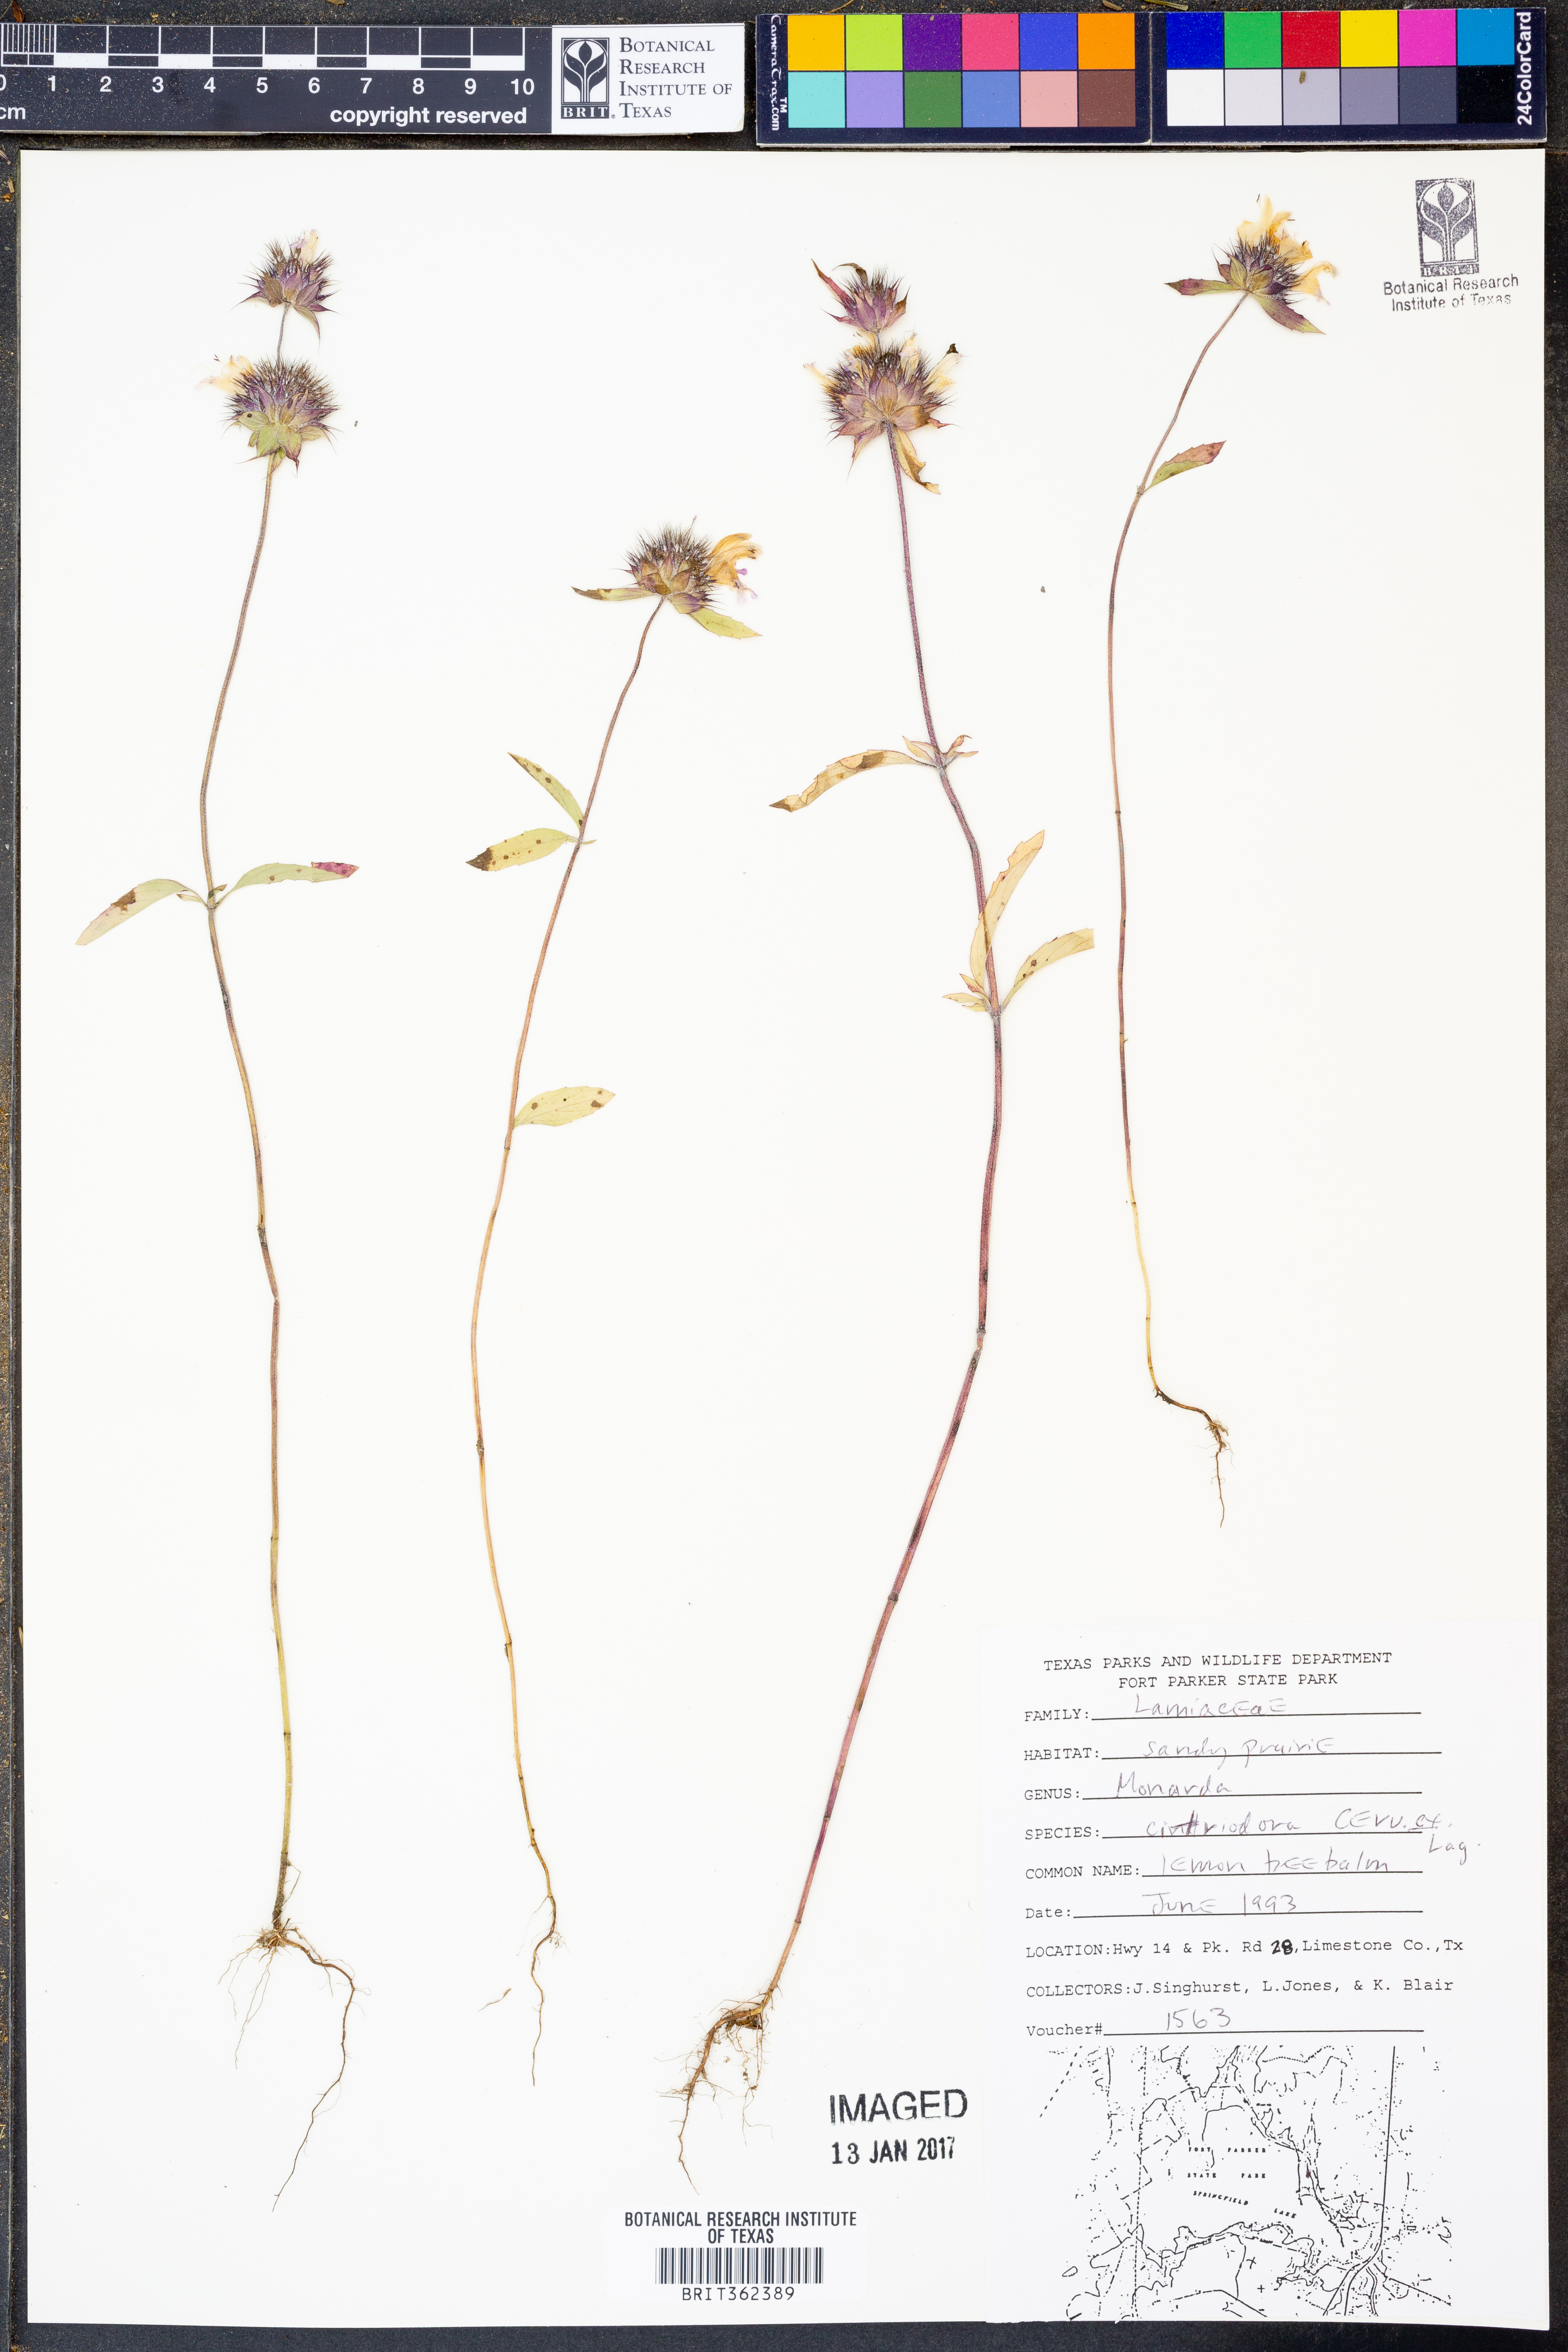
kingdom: Plantae
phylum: Tracheophyta
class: Magnoliopsida
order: Lamiales
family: Lamiaceae
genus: Monarda
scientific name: Monarda citriodora
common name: Lemon beebalm
